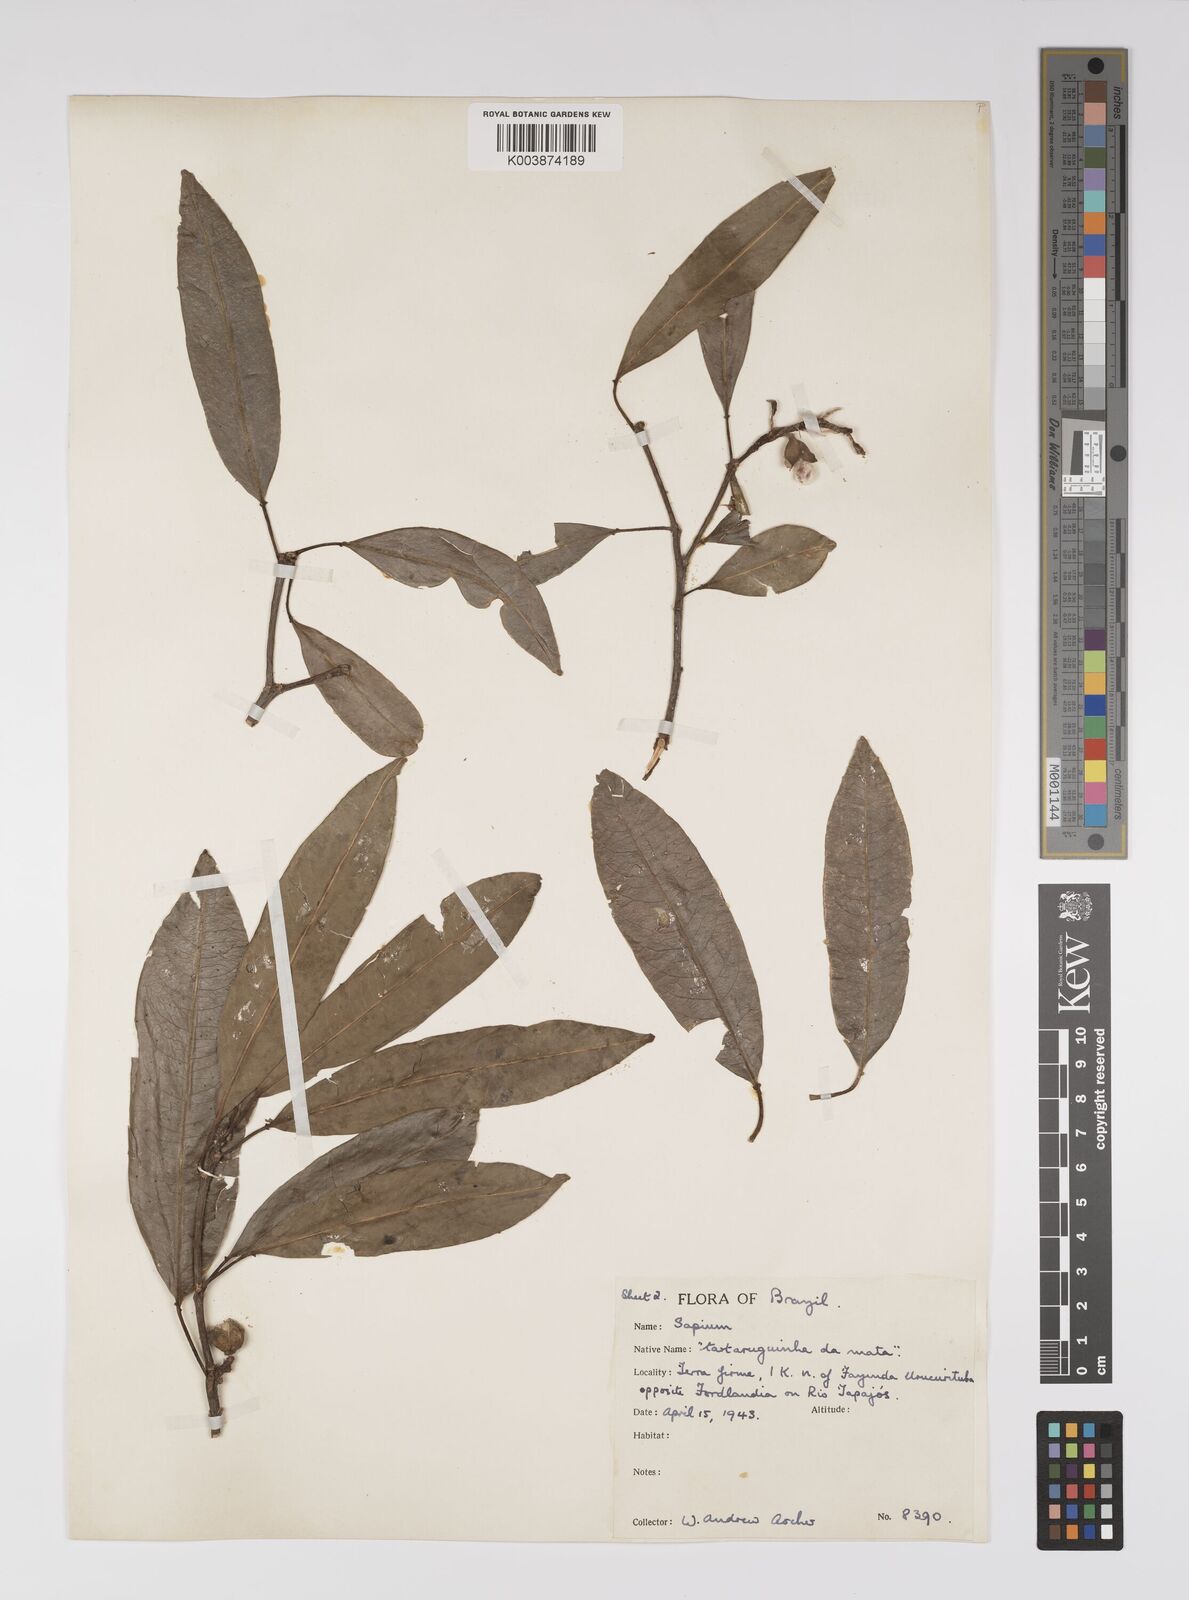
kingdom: Plantae
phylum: Tracheophyta
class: Magnoliopsida
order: Malpighiales
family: Euphorbiaceae
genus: Sapium
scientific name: Sapium
